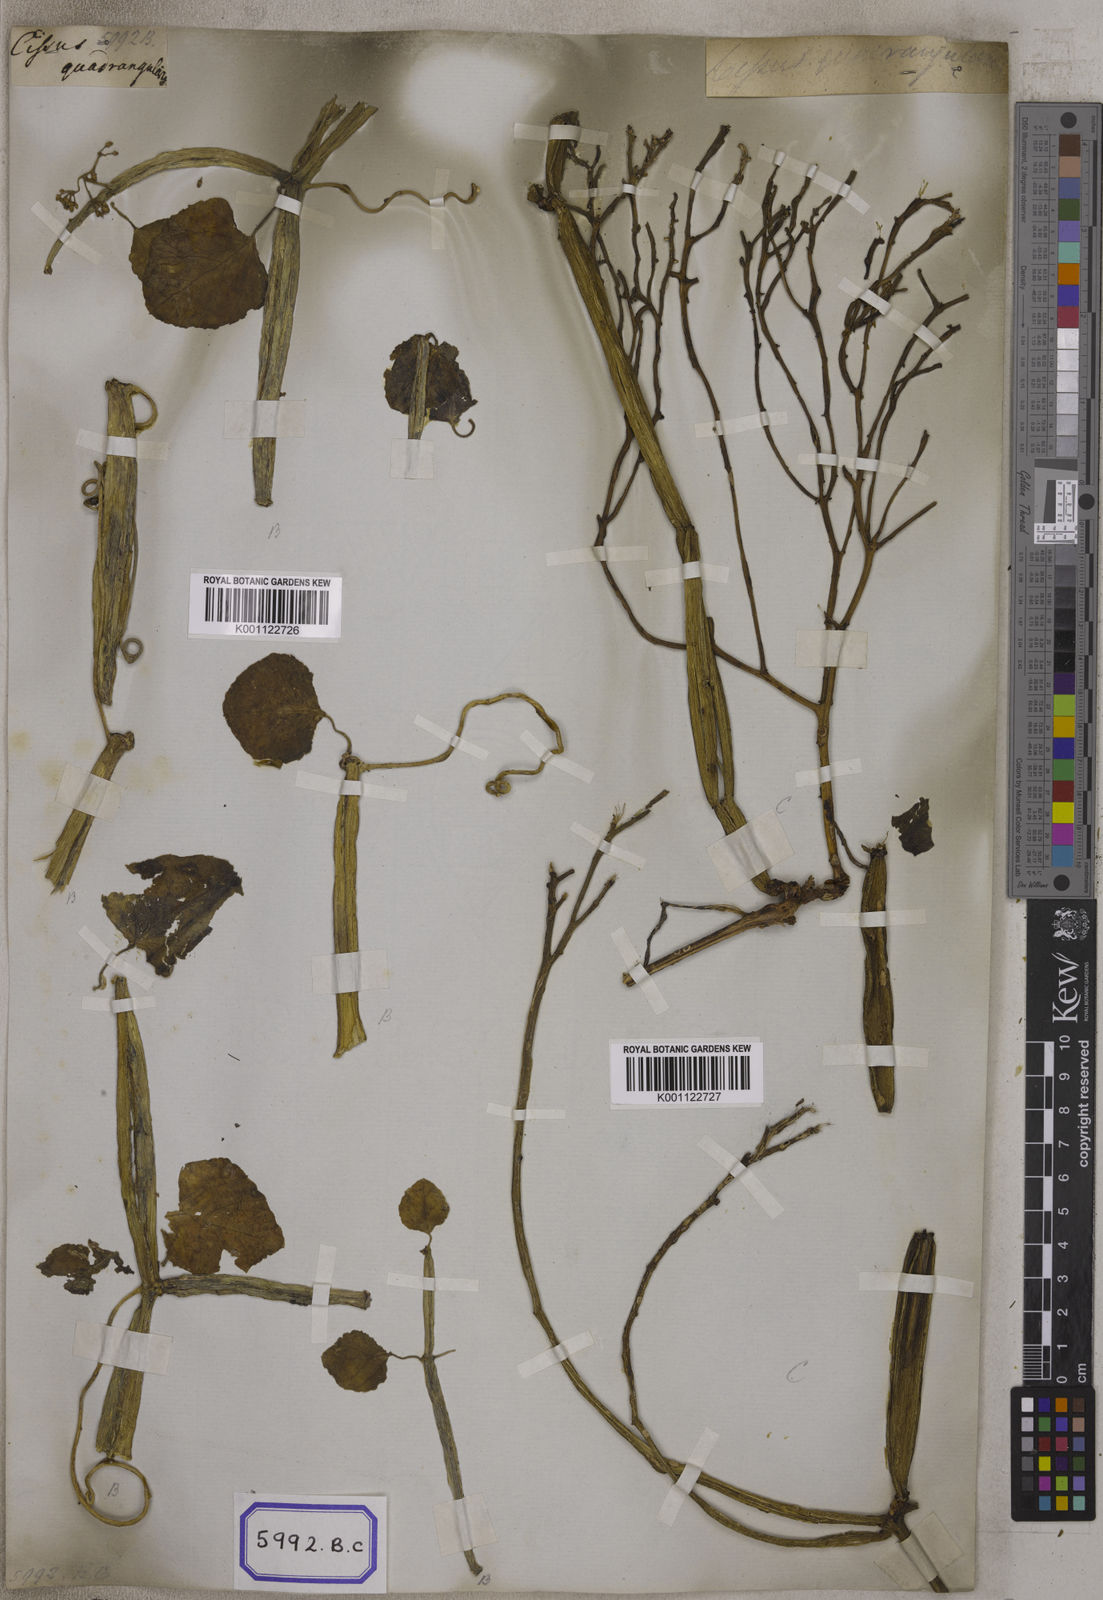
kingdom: Plantae
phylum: Tracheophyta
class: Magnoliopsida
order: Vitales
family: Vitaceae
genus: Vitis
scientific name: Vitis
